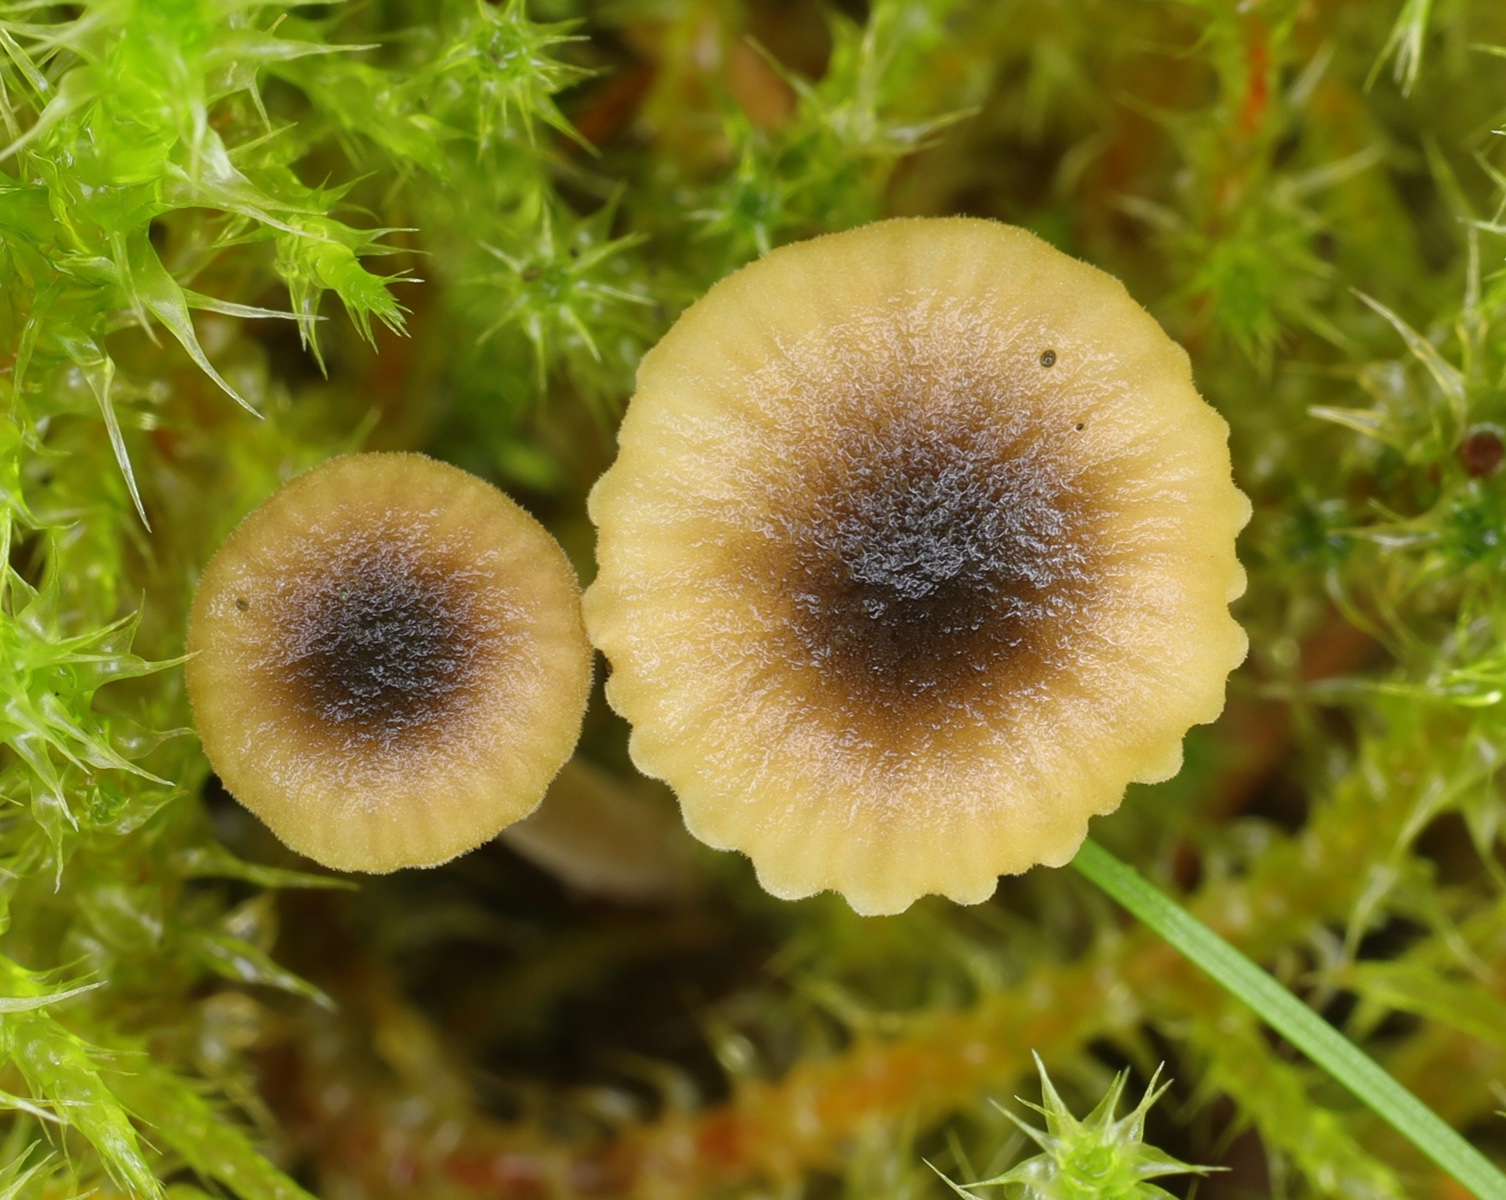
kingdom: Fungi
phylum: Basidiomycota
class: Agaricomycetes
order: Hymenochaetales
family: Rickenellaceae
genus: Rickenella
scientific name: Rickenella swartzii
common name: finstokket mosnavlehat
